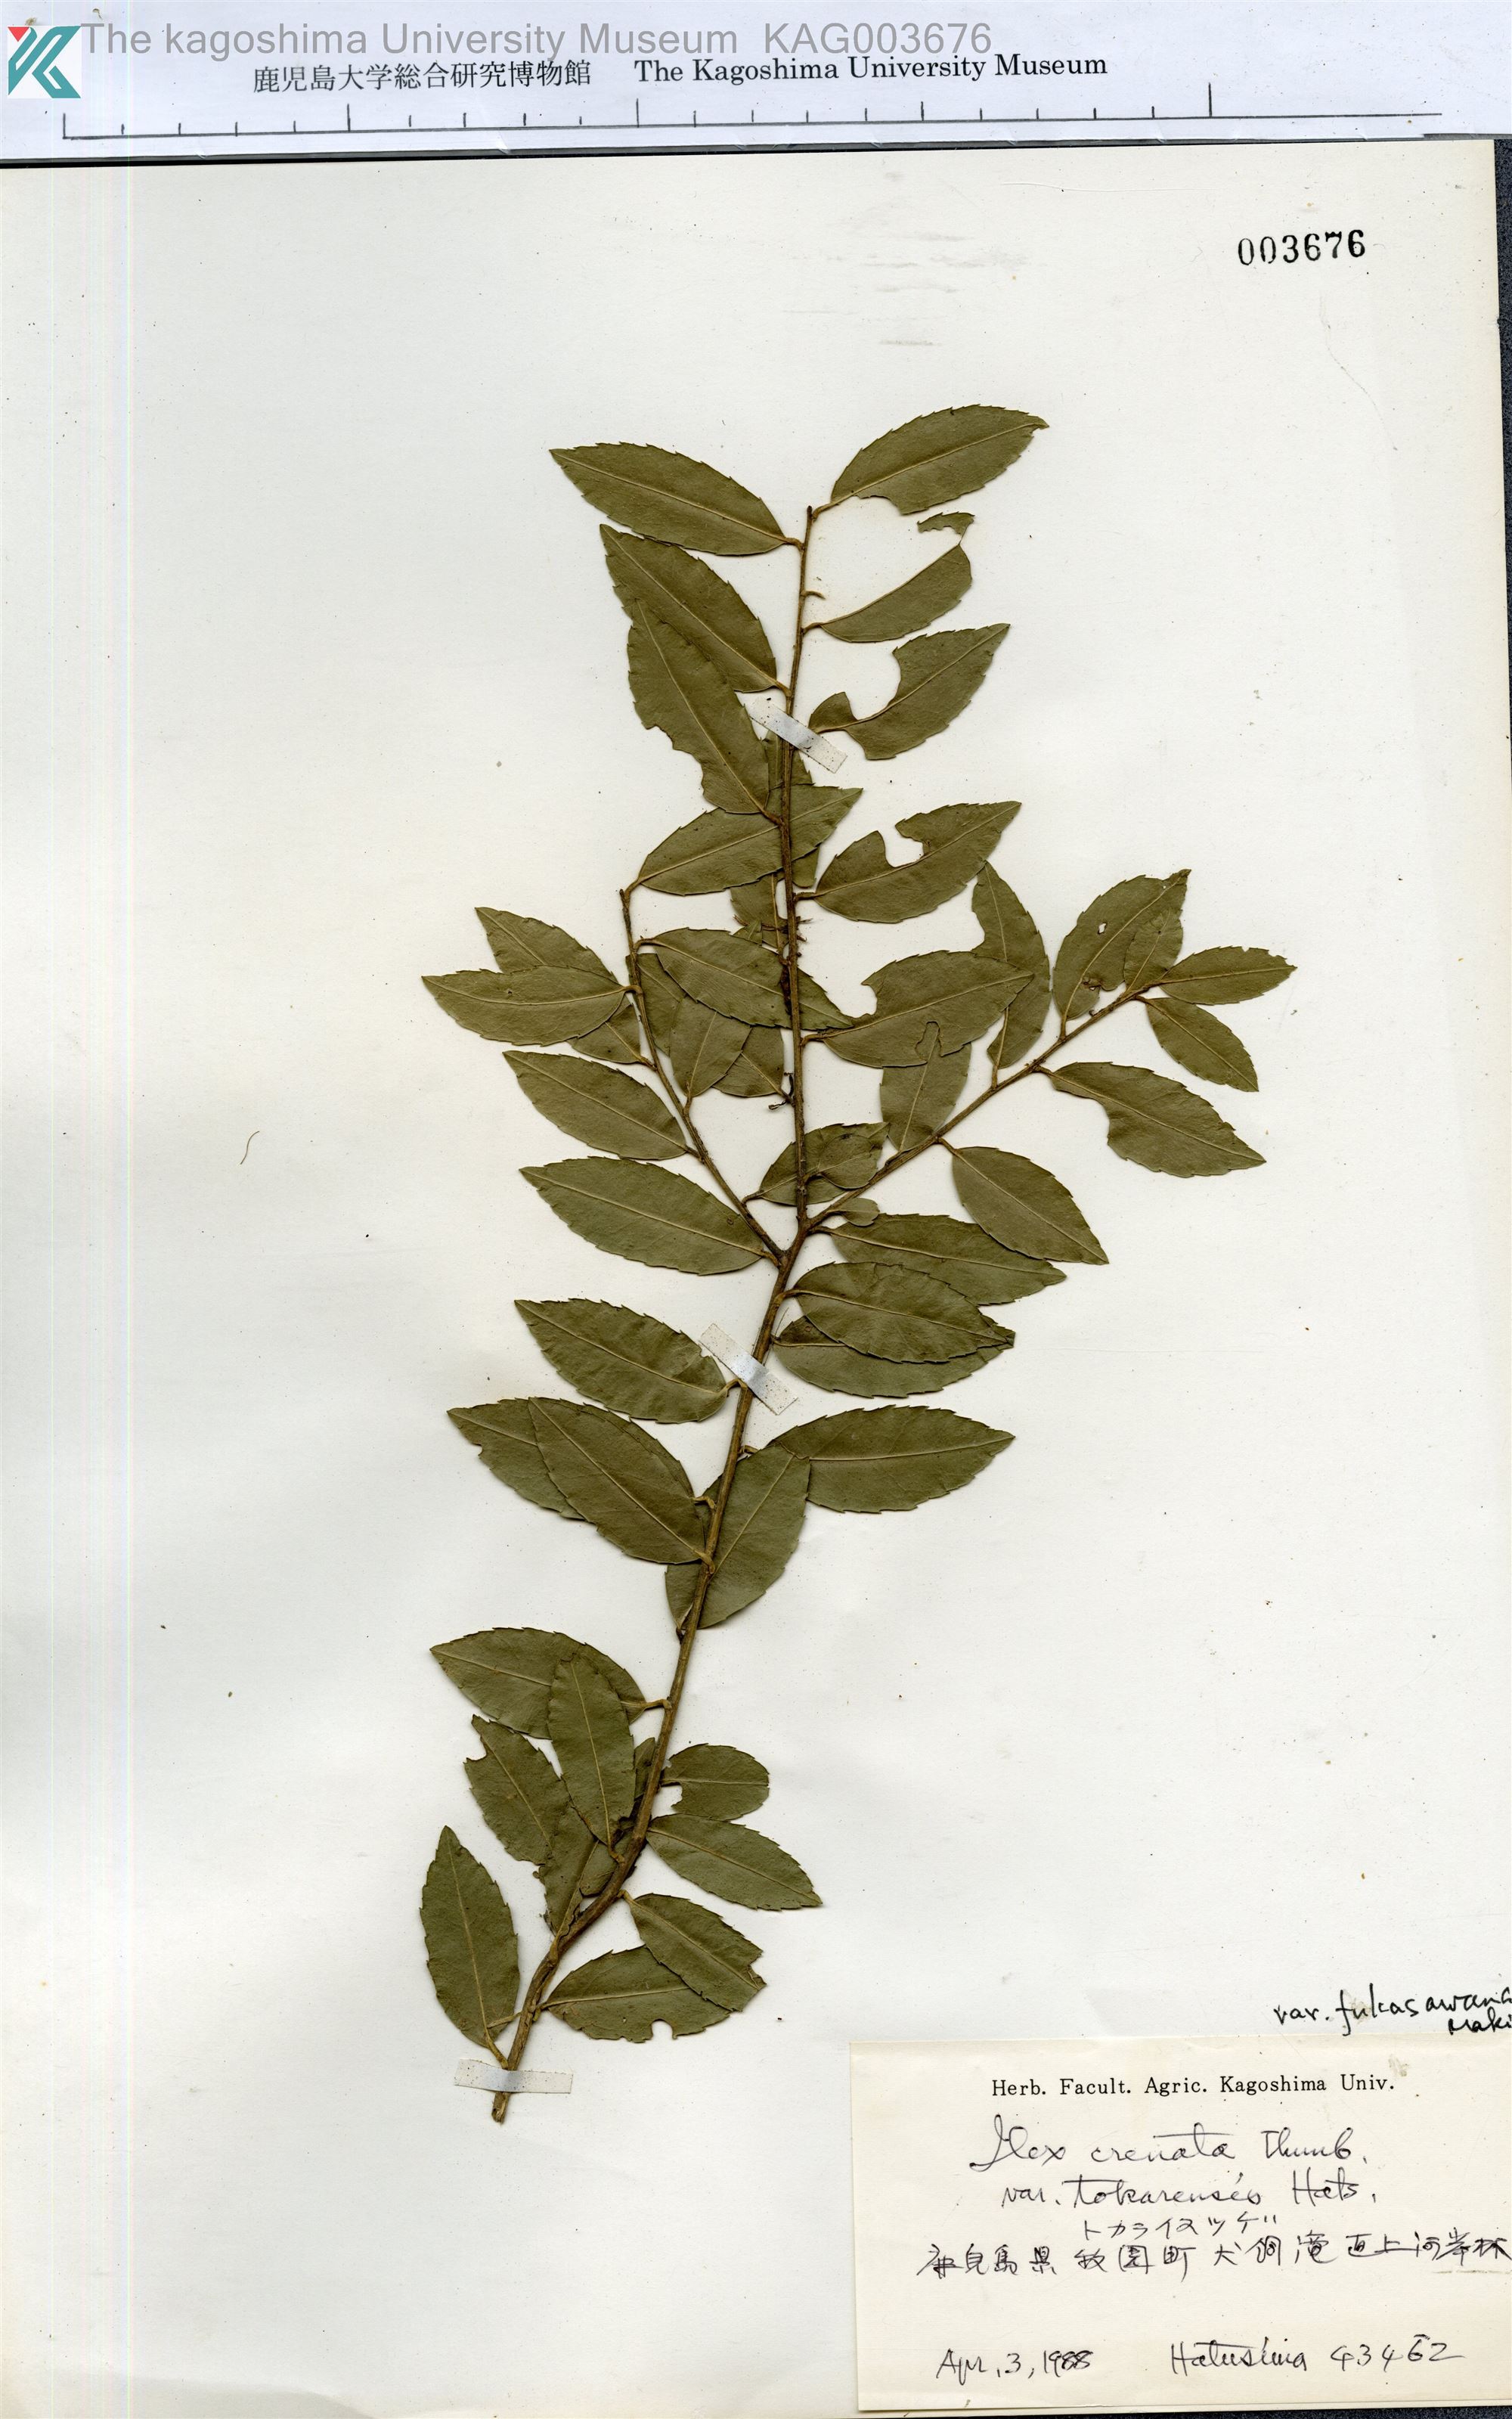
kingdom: Plantae
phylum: Tracheophyta
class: Magnoliopsida
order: Aquifoliales
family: Aquifoliaceae
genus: Ilex
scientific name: Ilex crenata
